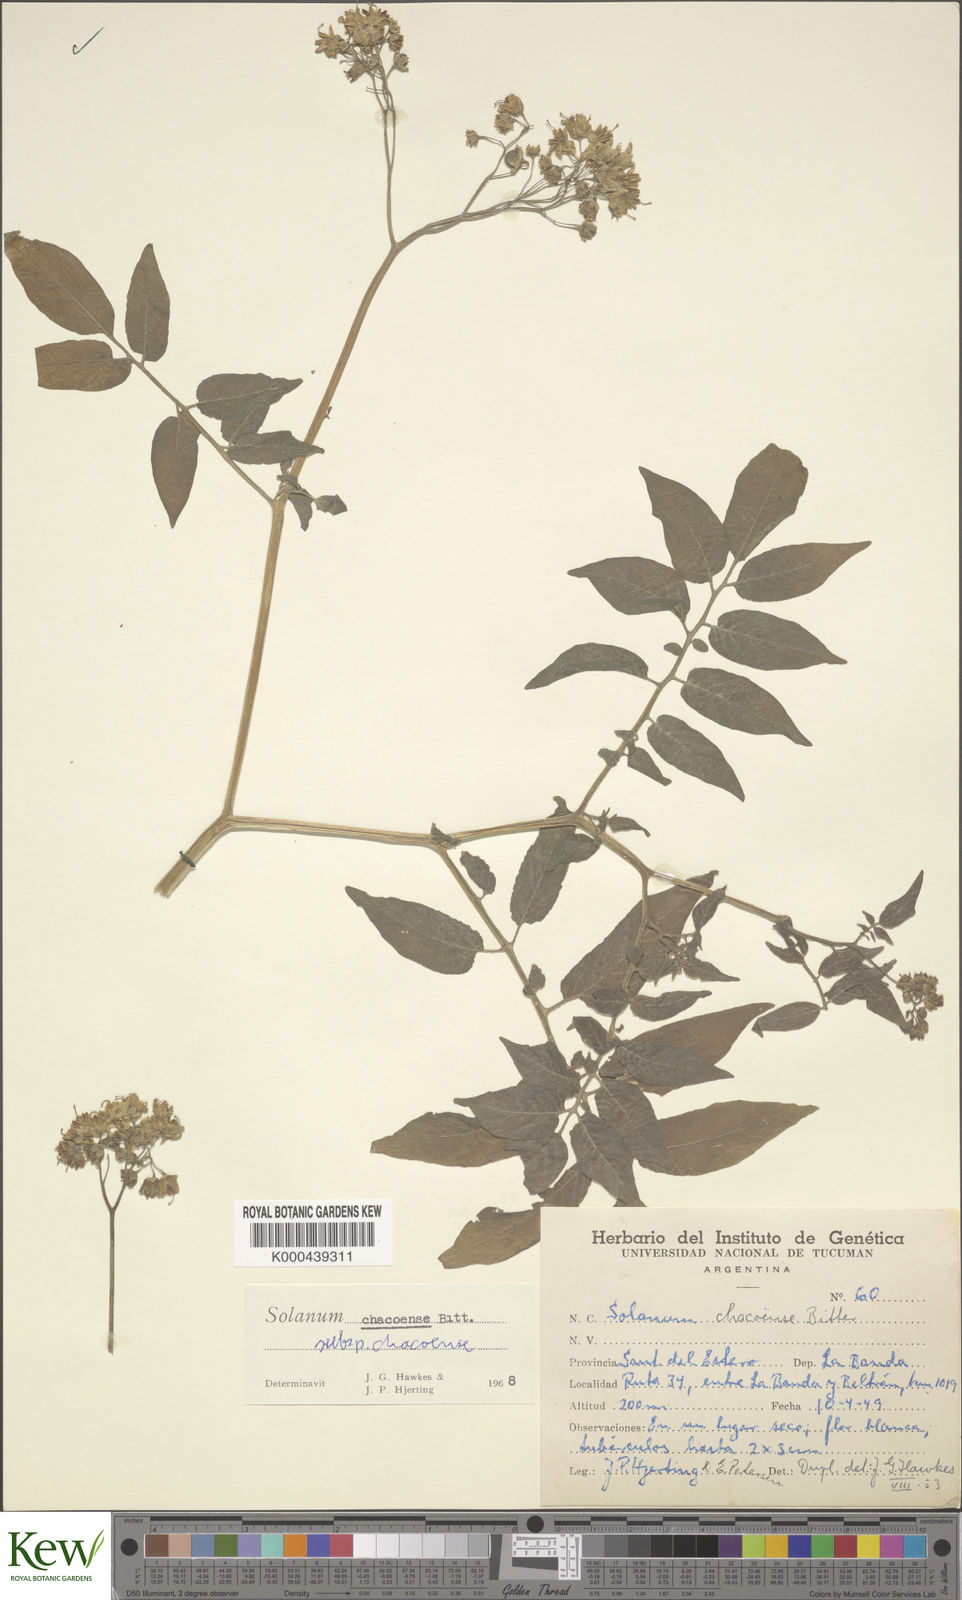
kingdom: Plantae
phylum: Tracheophyta
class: Magnoliopsida
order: Solanales
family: Solanaceae
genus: Solanum
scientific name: Solanum chacoense
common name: Chaco potato
